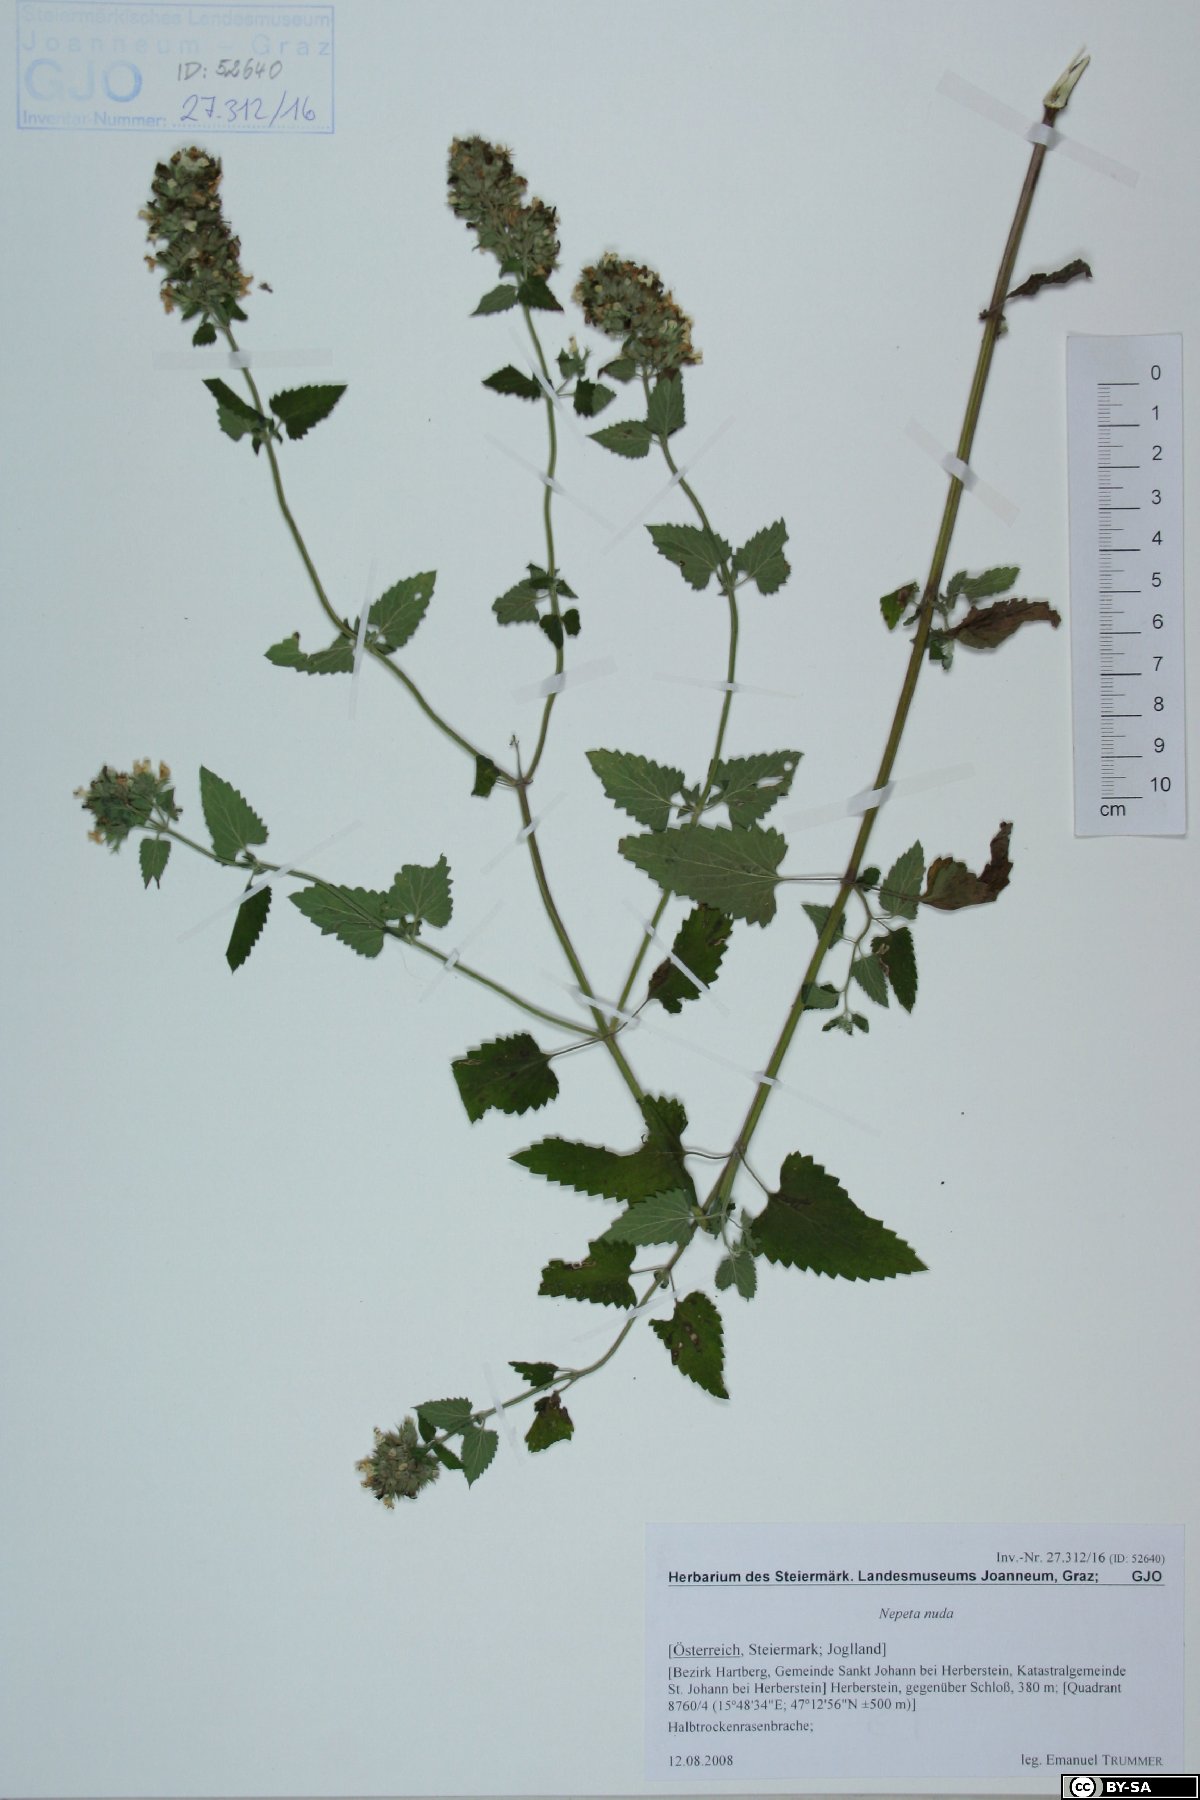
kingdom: Plantae
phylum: Tracheophyta
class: Magnoliopsida
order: Lamiales
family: Lamiaceae
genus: Nepeta
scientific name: Nepeta nuda
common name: Hairless catmint
